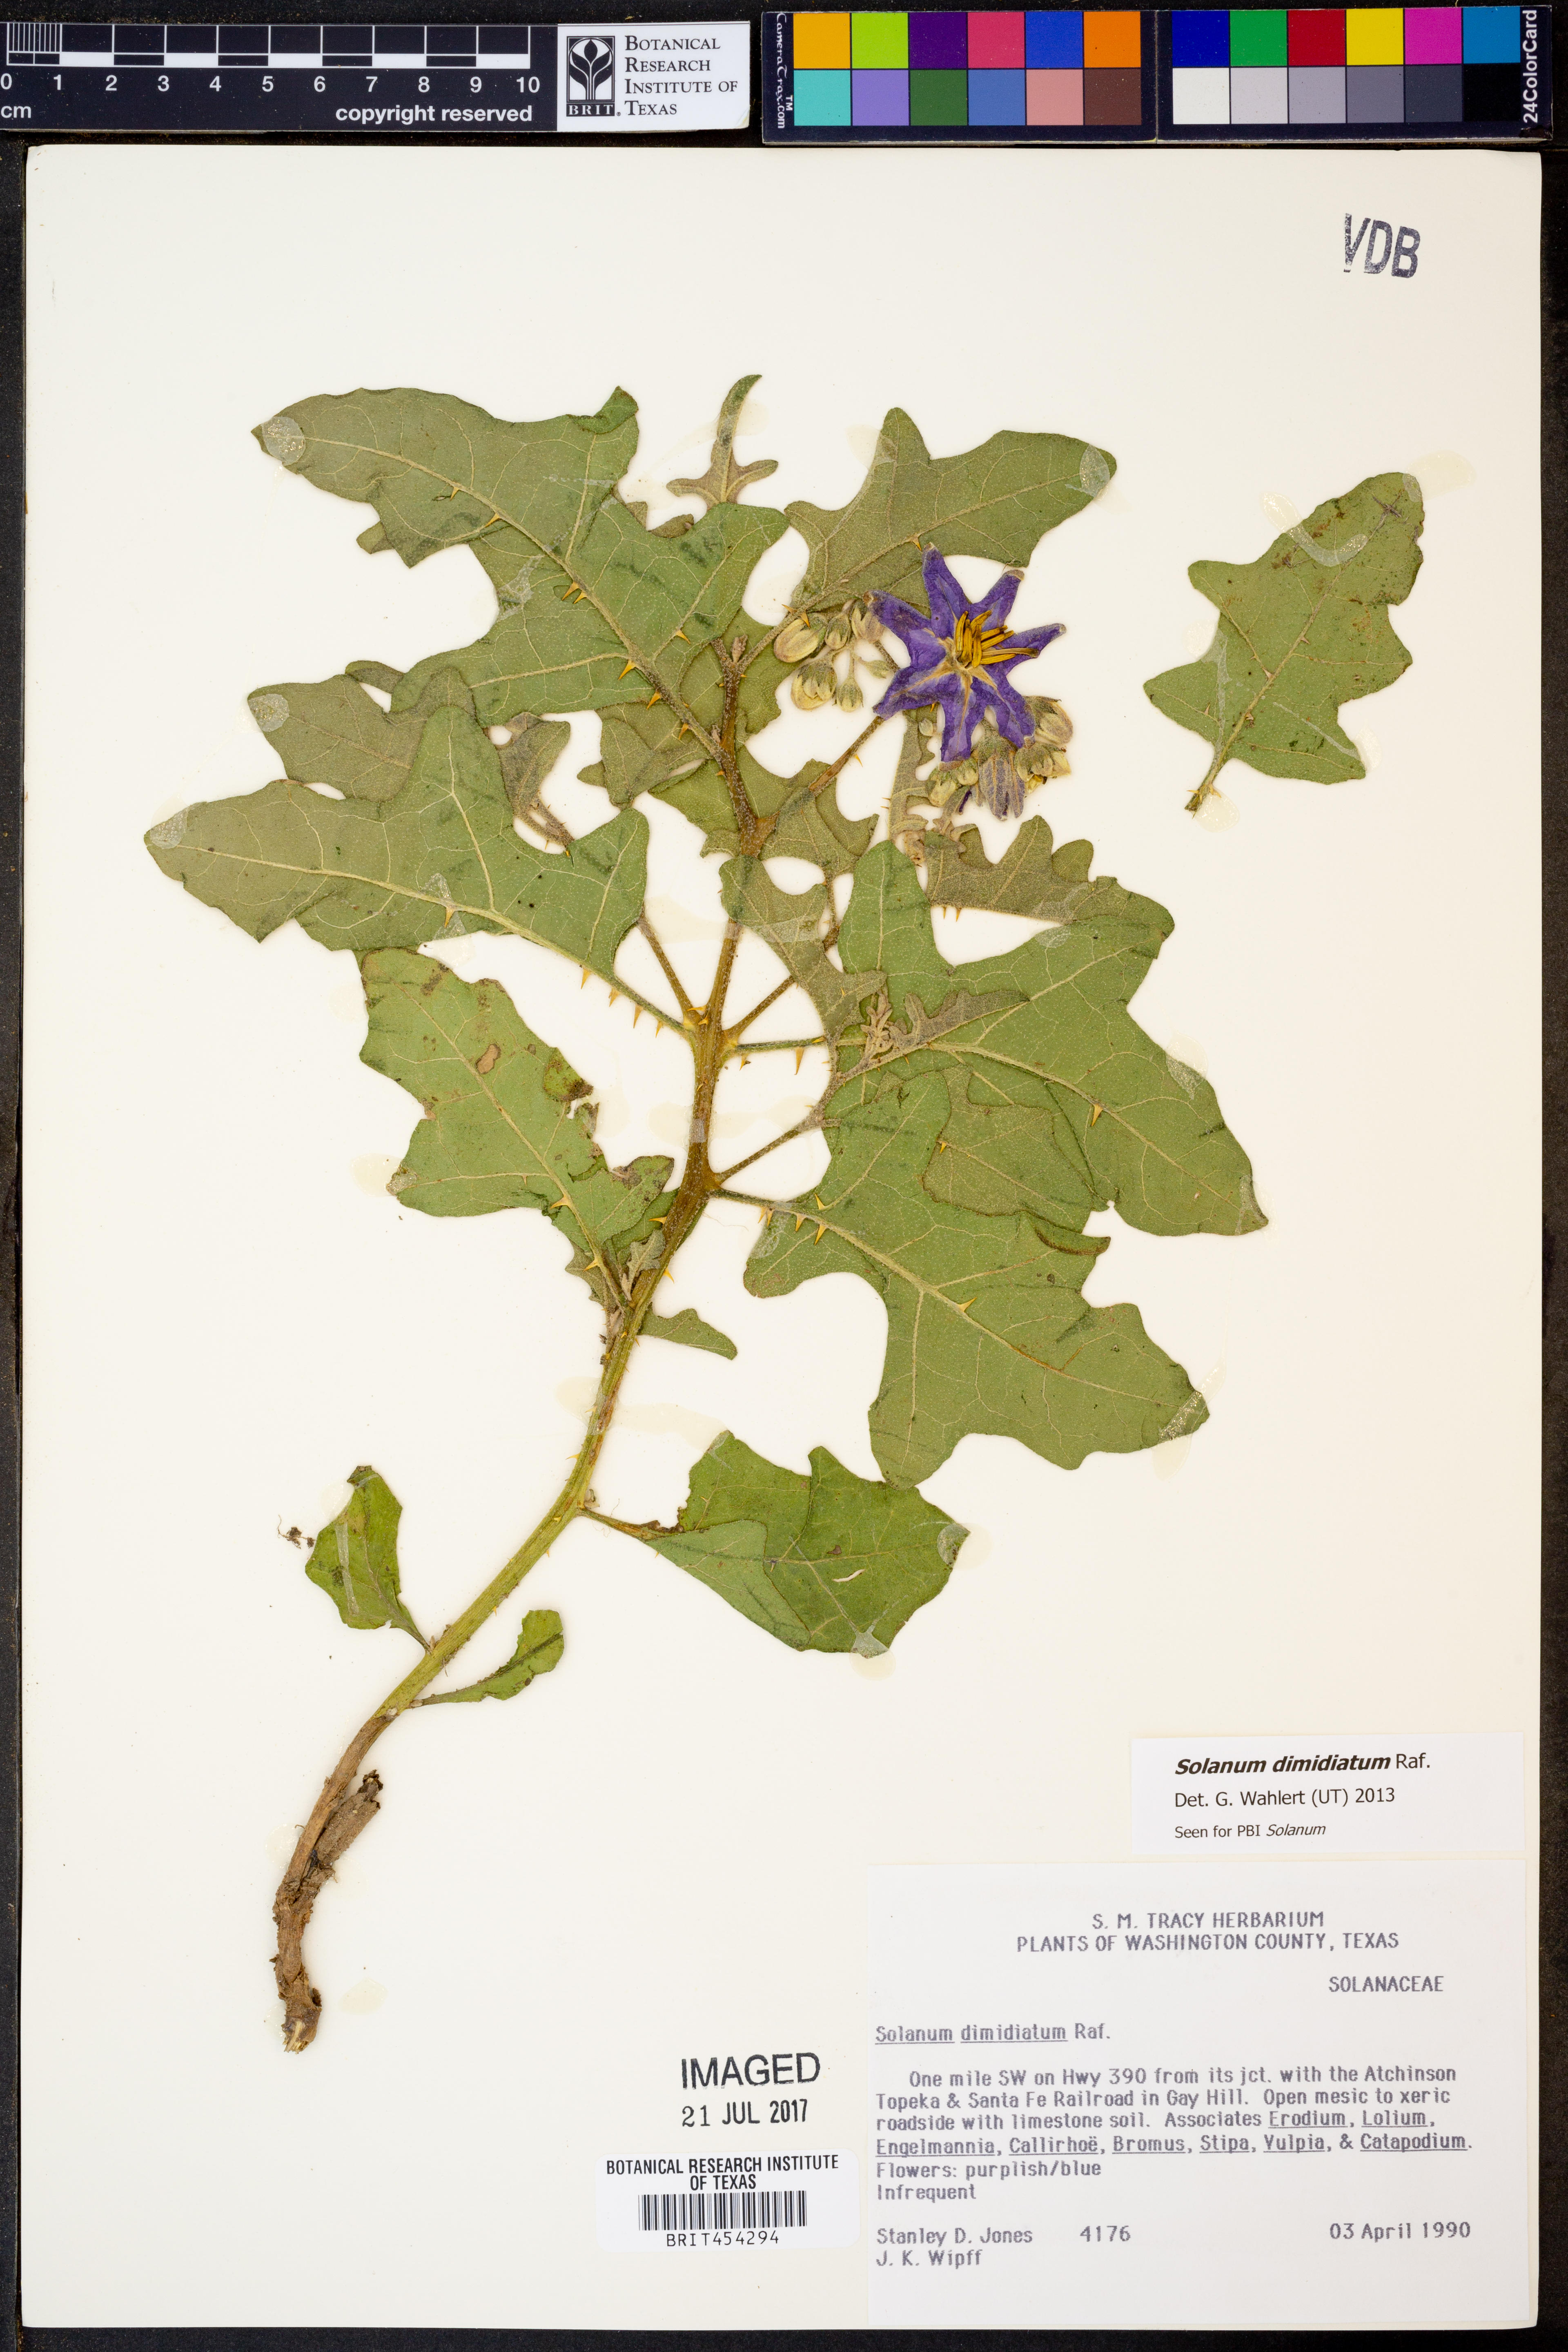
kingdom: Plantae
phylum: Tracheophyta
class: Magnoliopsida
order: Solanales
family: Solanaceae
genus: Solanum
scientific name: Solanum dimidiatum
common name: Carolina horse-nettle
